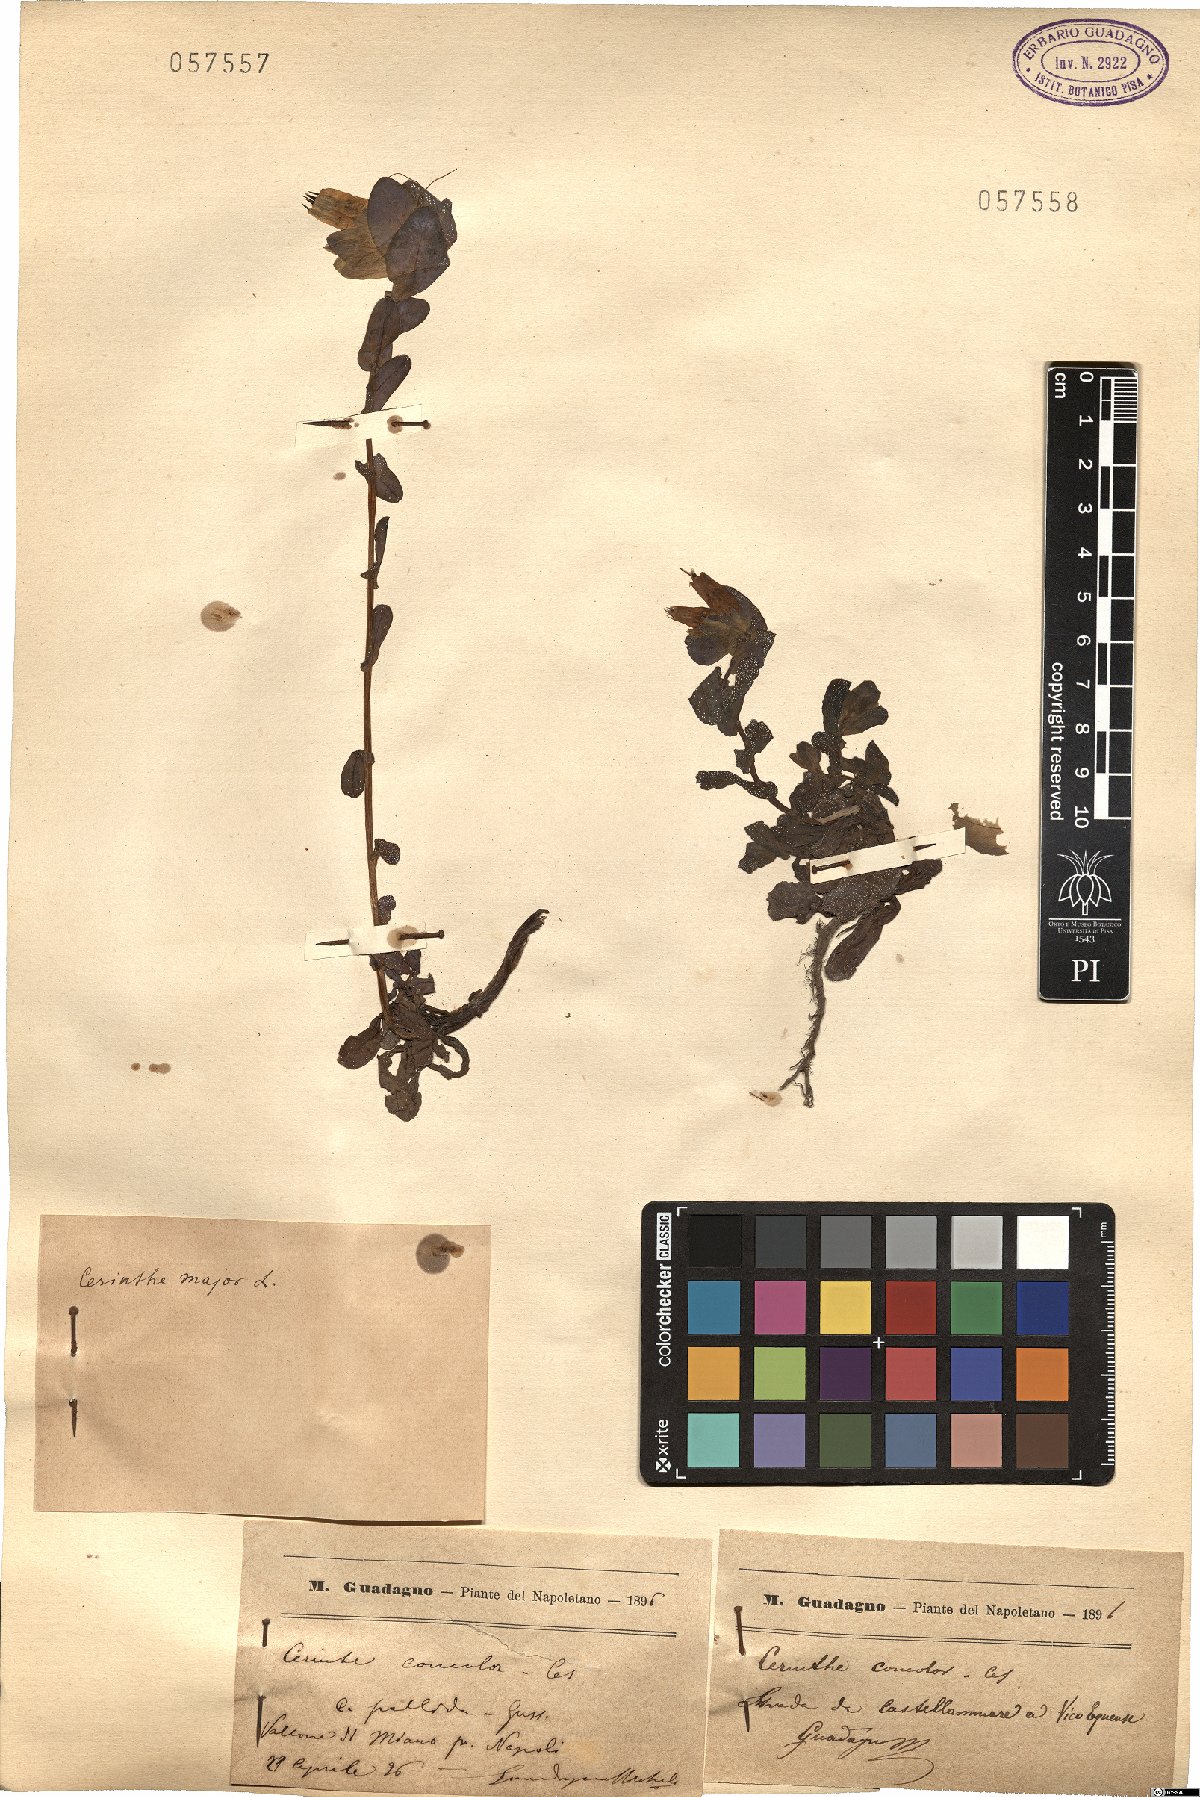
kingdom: Plantae
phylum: Tracheophyta
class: Magnoliopsida
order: Boraginales
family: Boraginaceae
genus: Cerinthe
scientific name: Cerinthe major
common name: Greater honeywort
